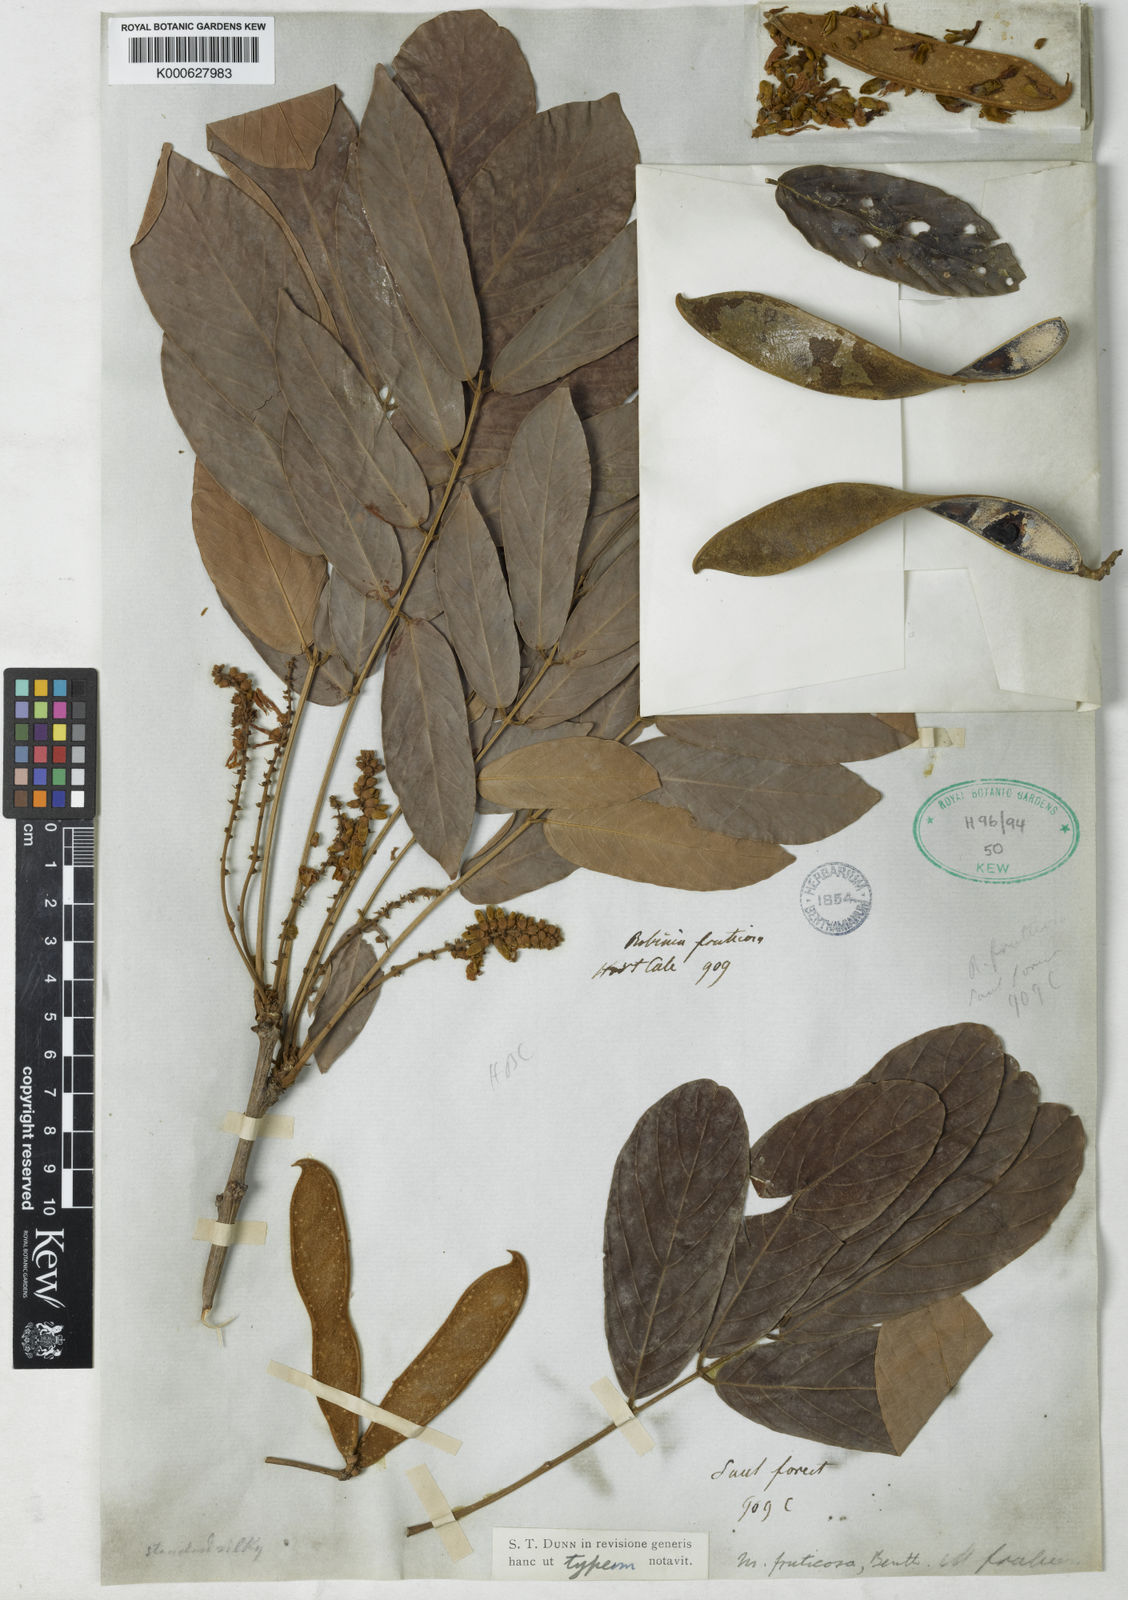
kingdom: Plantae
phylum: Tracheophyta
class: Magnoliopsida
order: Fabales
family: Fabaceae
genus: Millettia
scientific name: Millettia fruticosa
